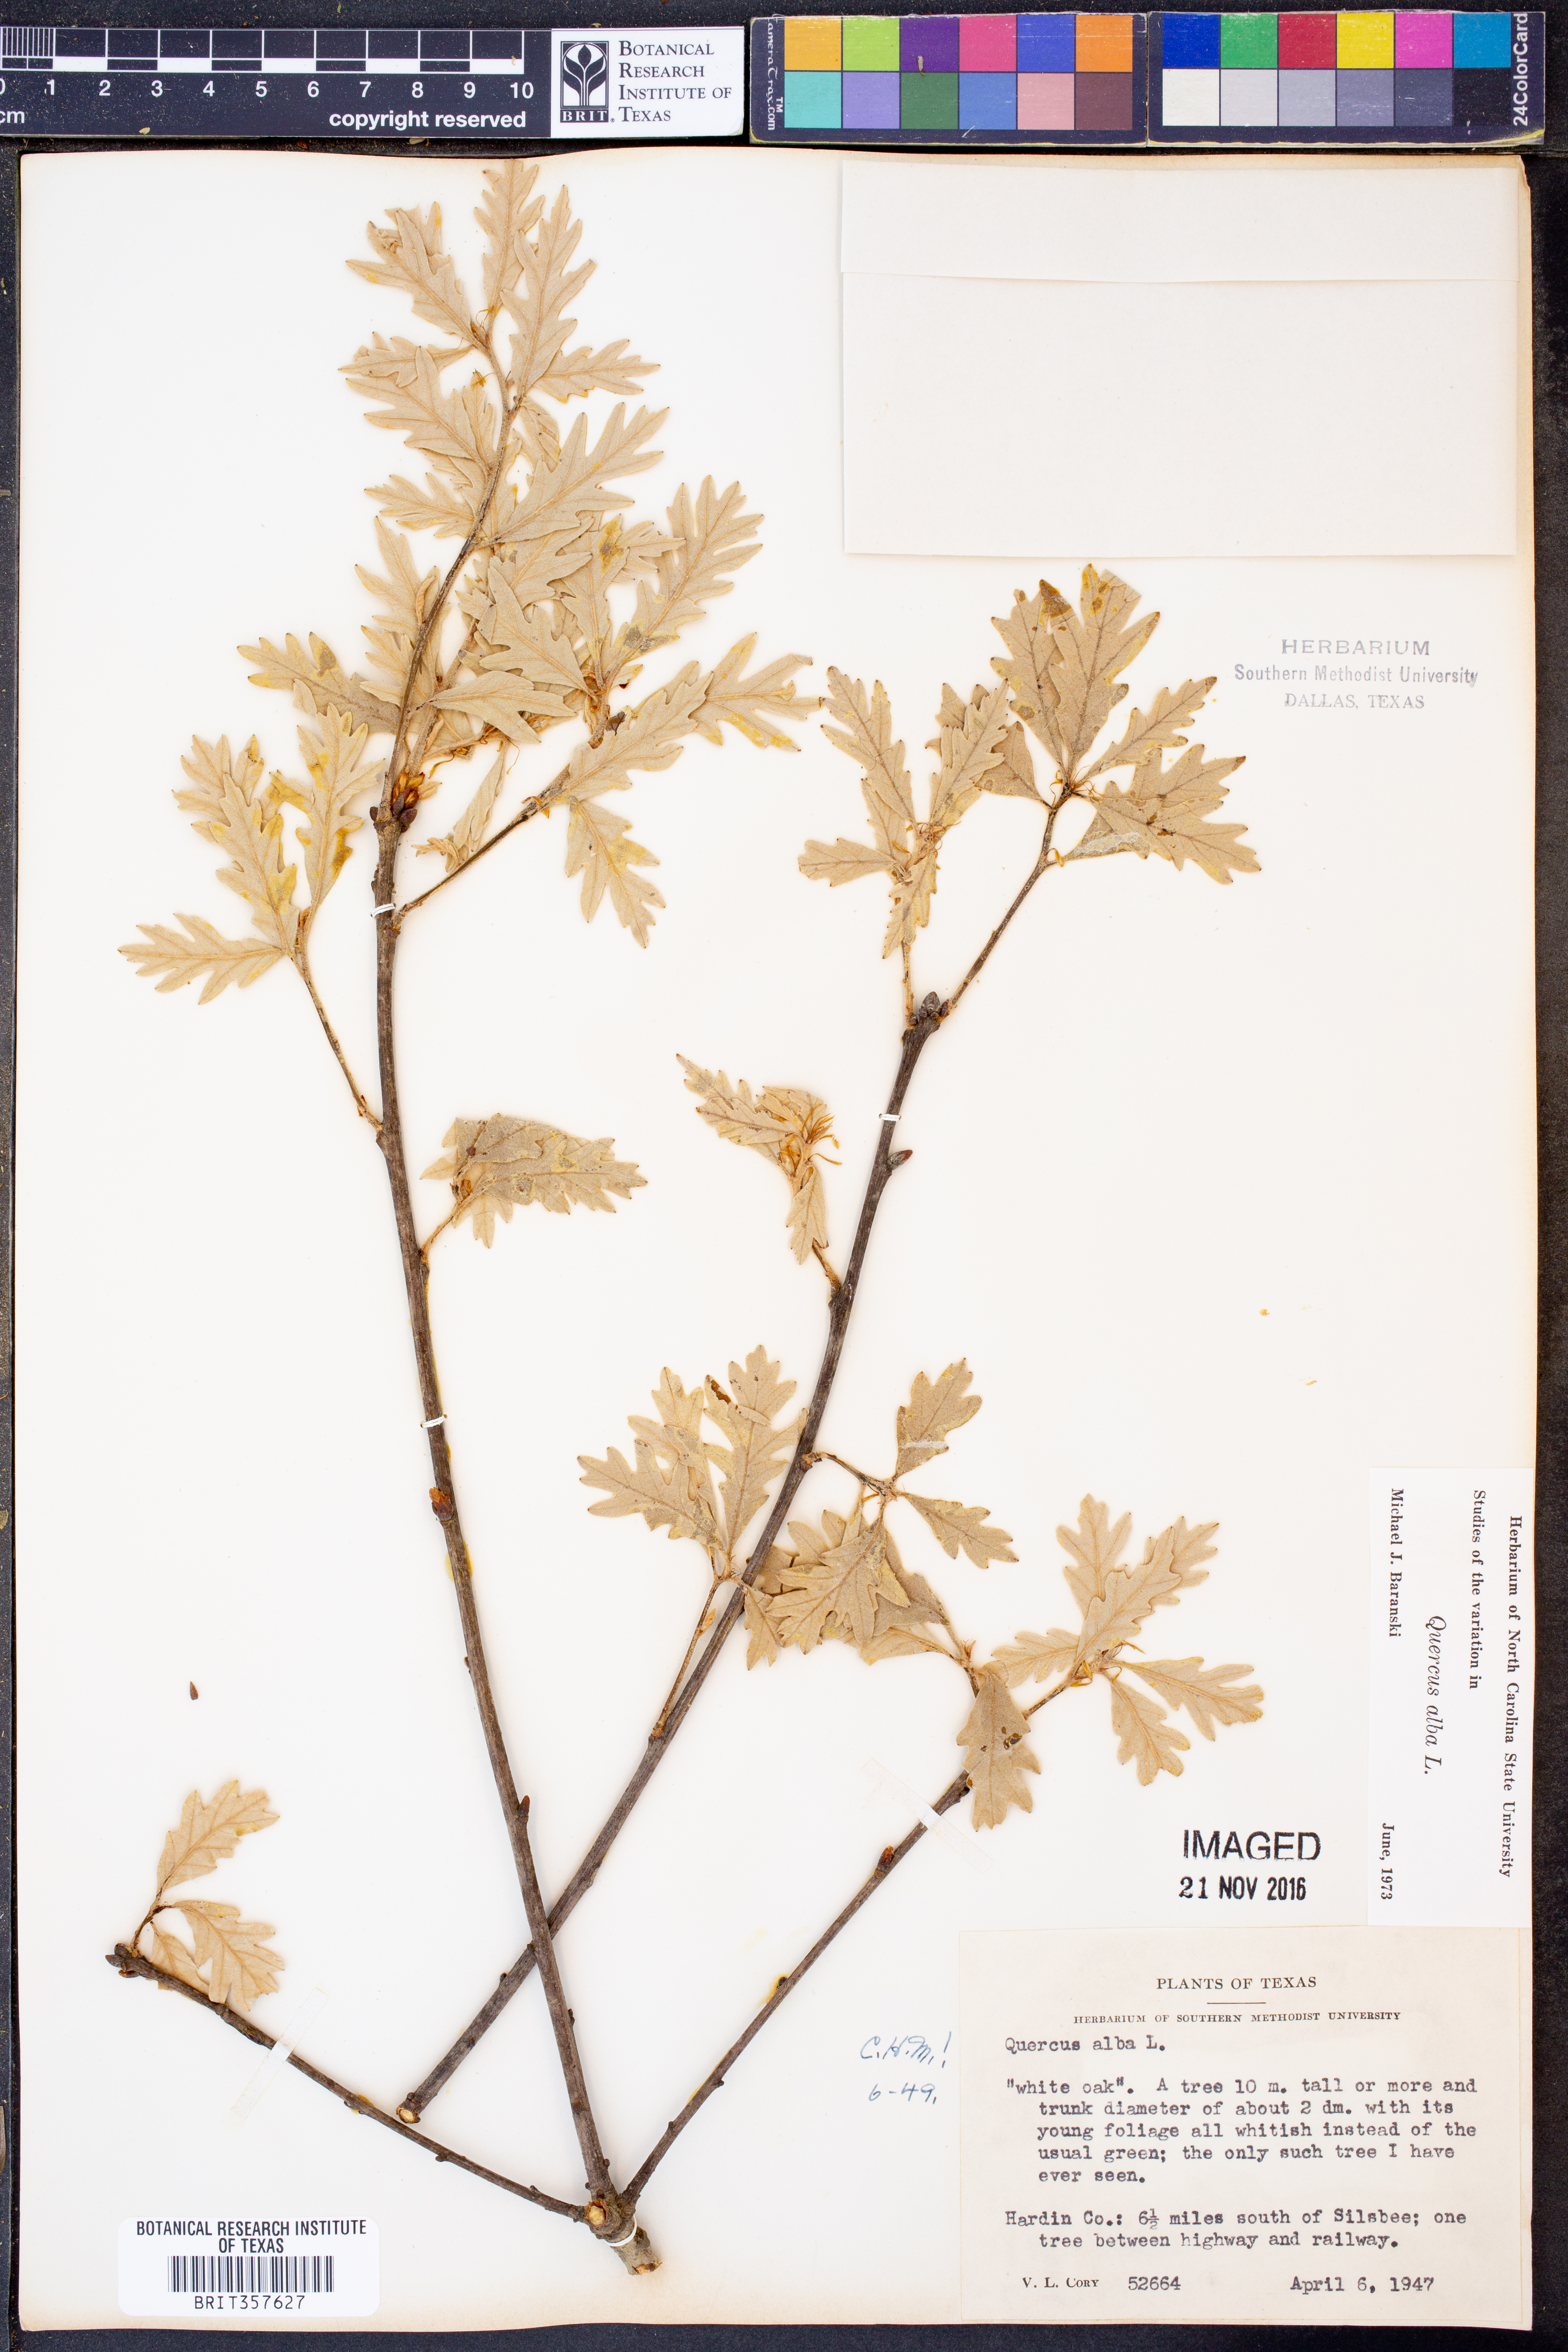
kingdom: Plantae
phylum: Tracheophyta
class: Magnoliopsida
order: Fagales
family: Fagaceae
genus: Quercus
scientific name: Quercus alba
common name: White oak
